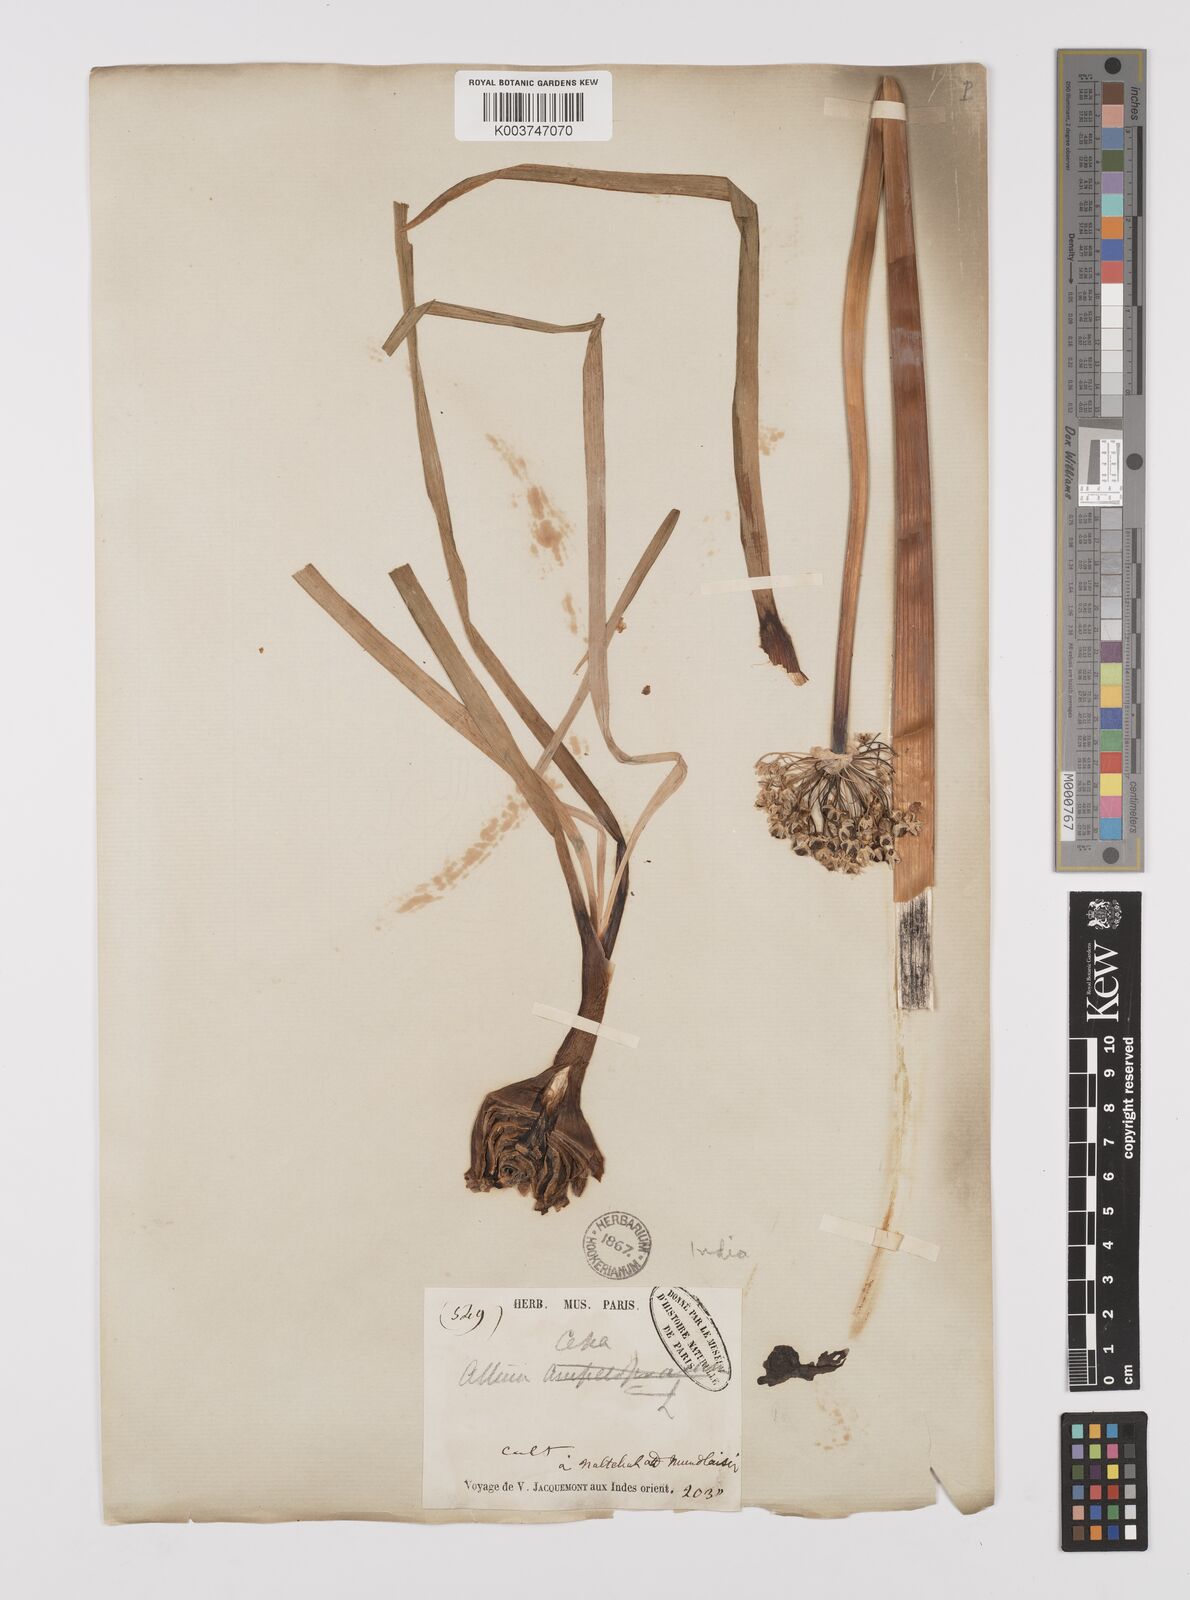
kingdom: Plantae
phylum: Tracheophyta
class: Liliopsida
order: Asparagales
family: Amaryllidaceae
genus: Allium
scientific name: Allium cepa
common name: Onion
